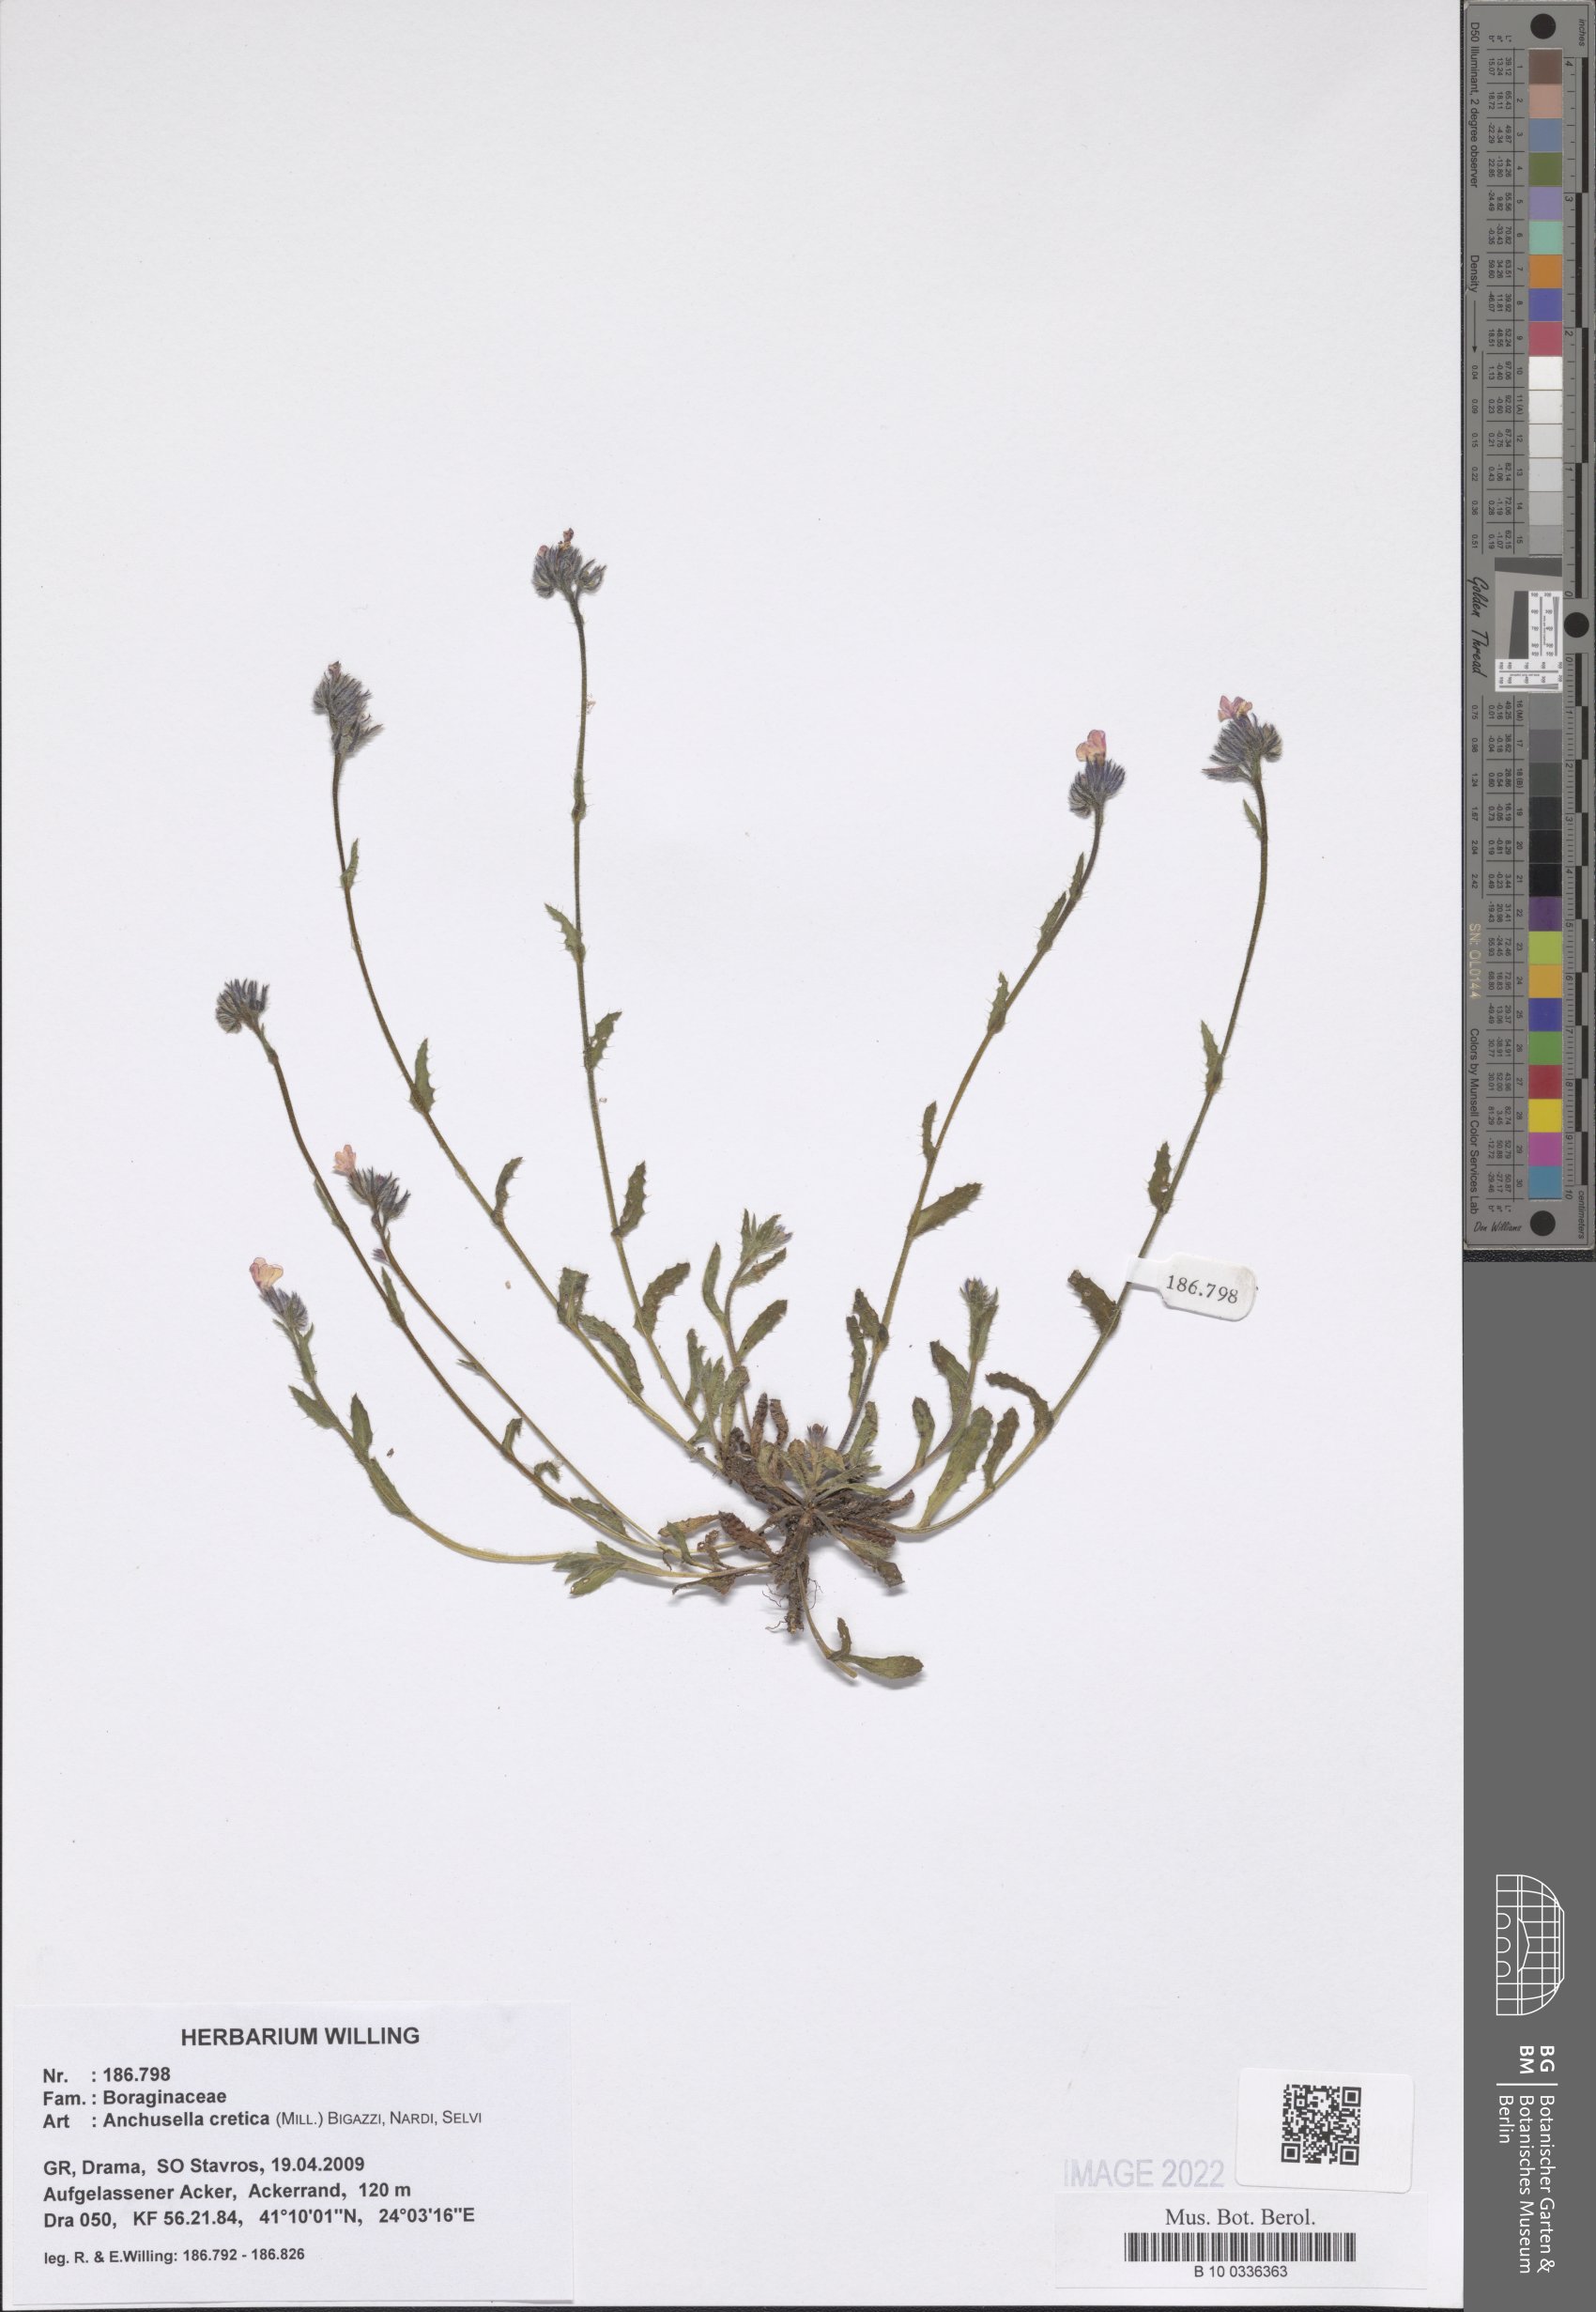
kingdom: Plantae
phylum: Tracheophyta
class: Magnoliopsida
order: Boraginales
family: Boraginaceae
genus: Anchusella
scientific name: Anchusella cretica
